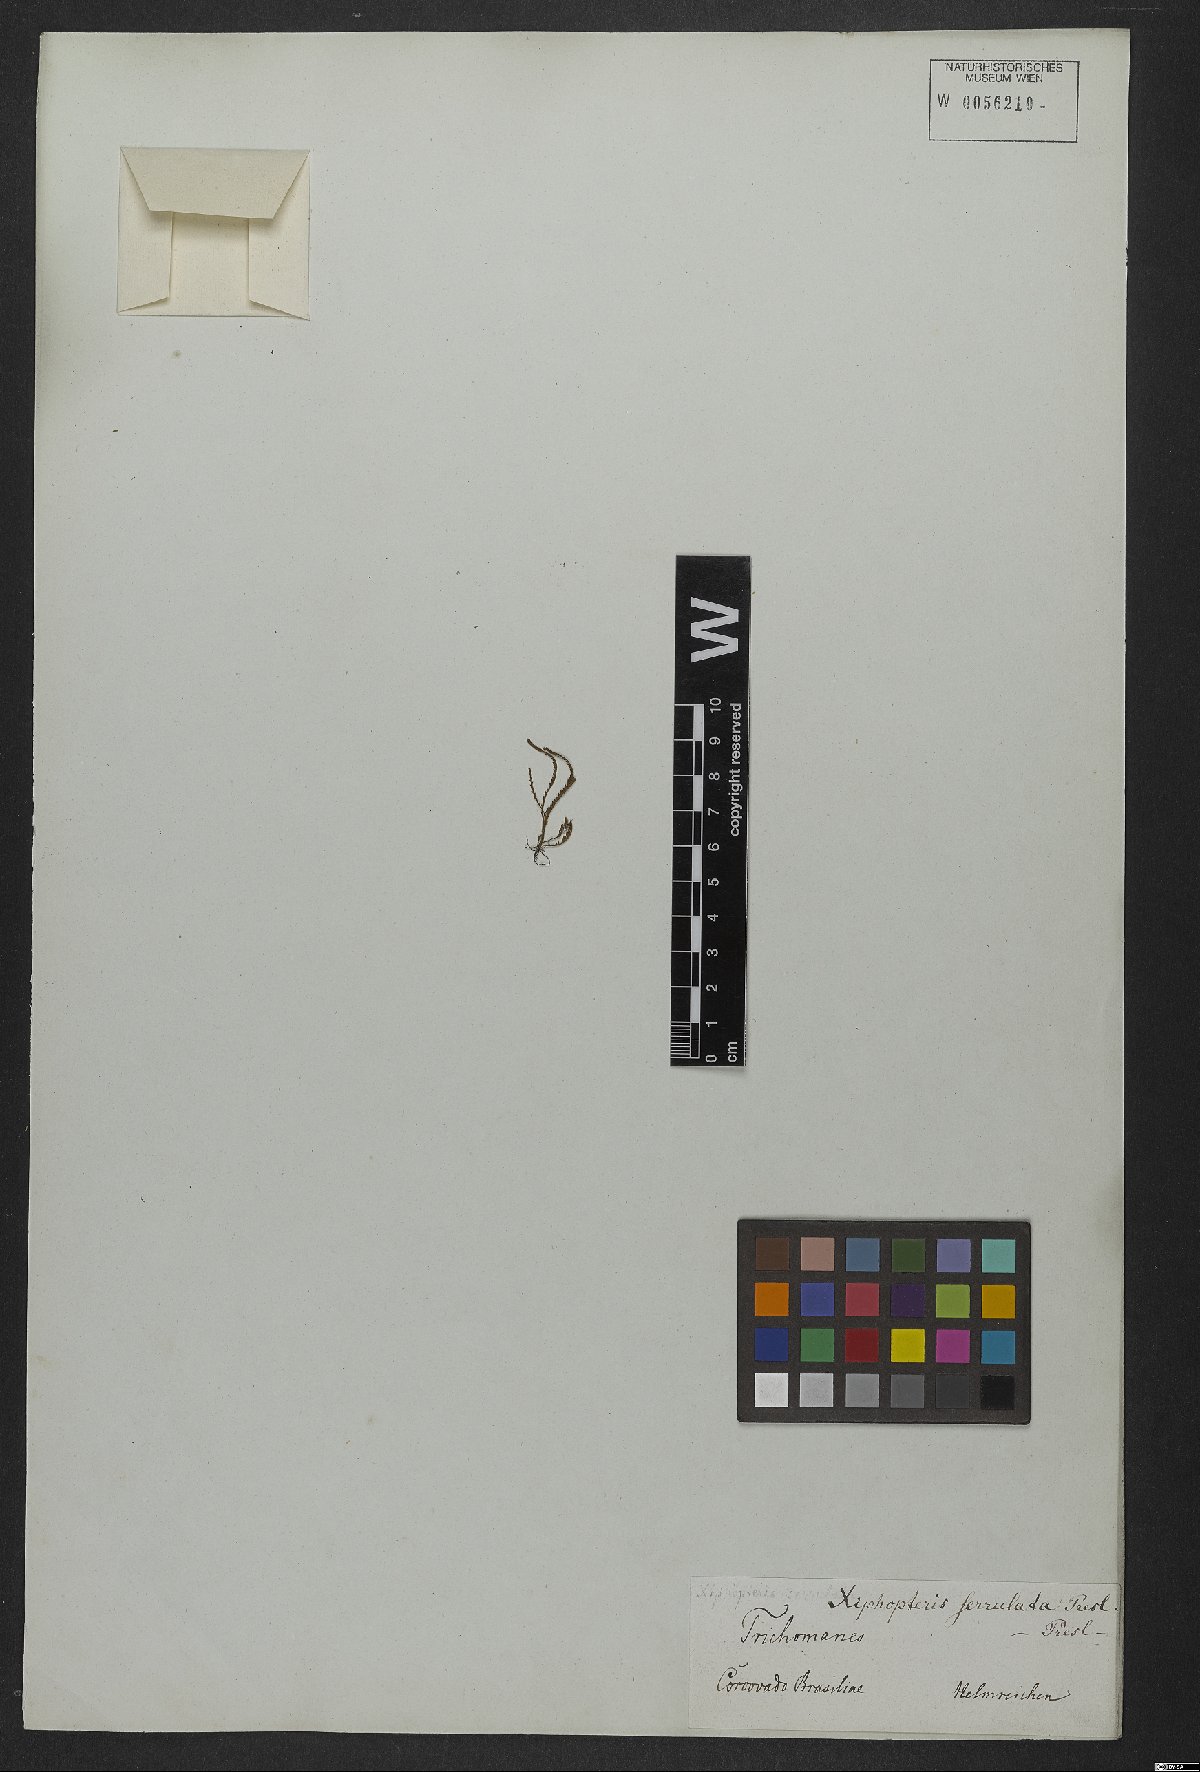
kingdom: Plantae
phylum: Tracheophyta
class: Polypodiopsida
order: Polypodiales
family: Polypodiaceae
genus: Cochlidium
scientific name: Cochlidium serrulatum
